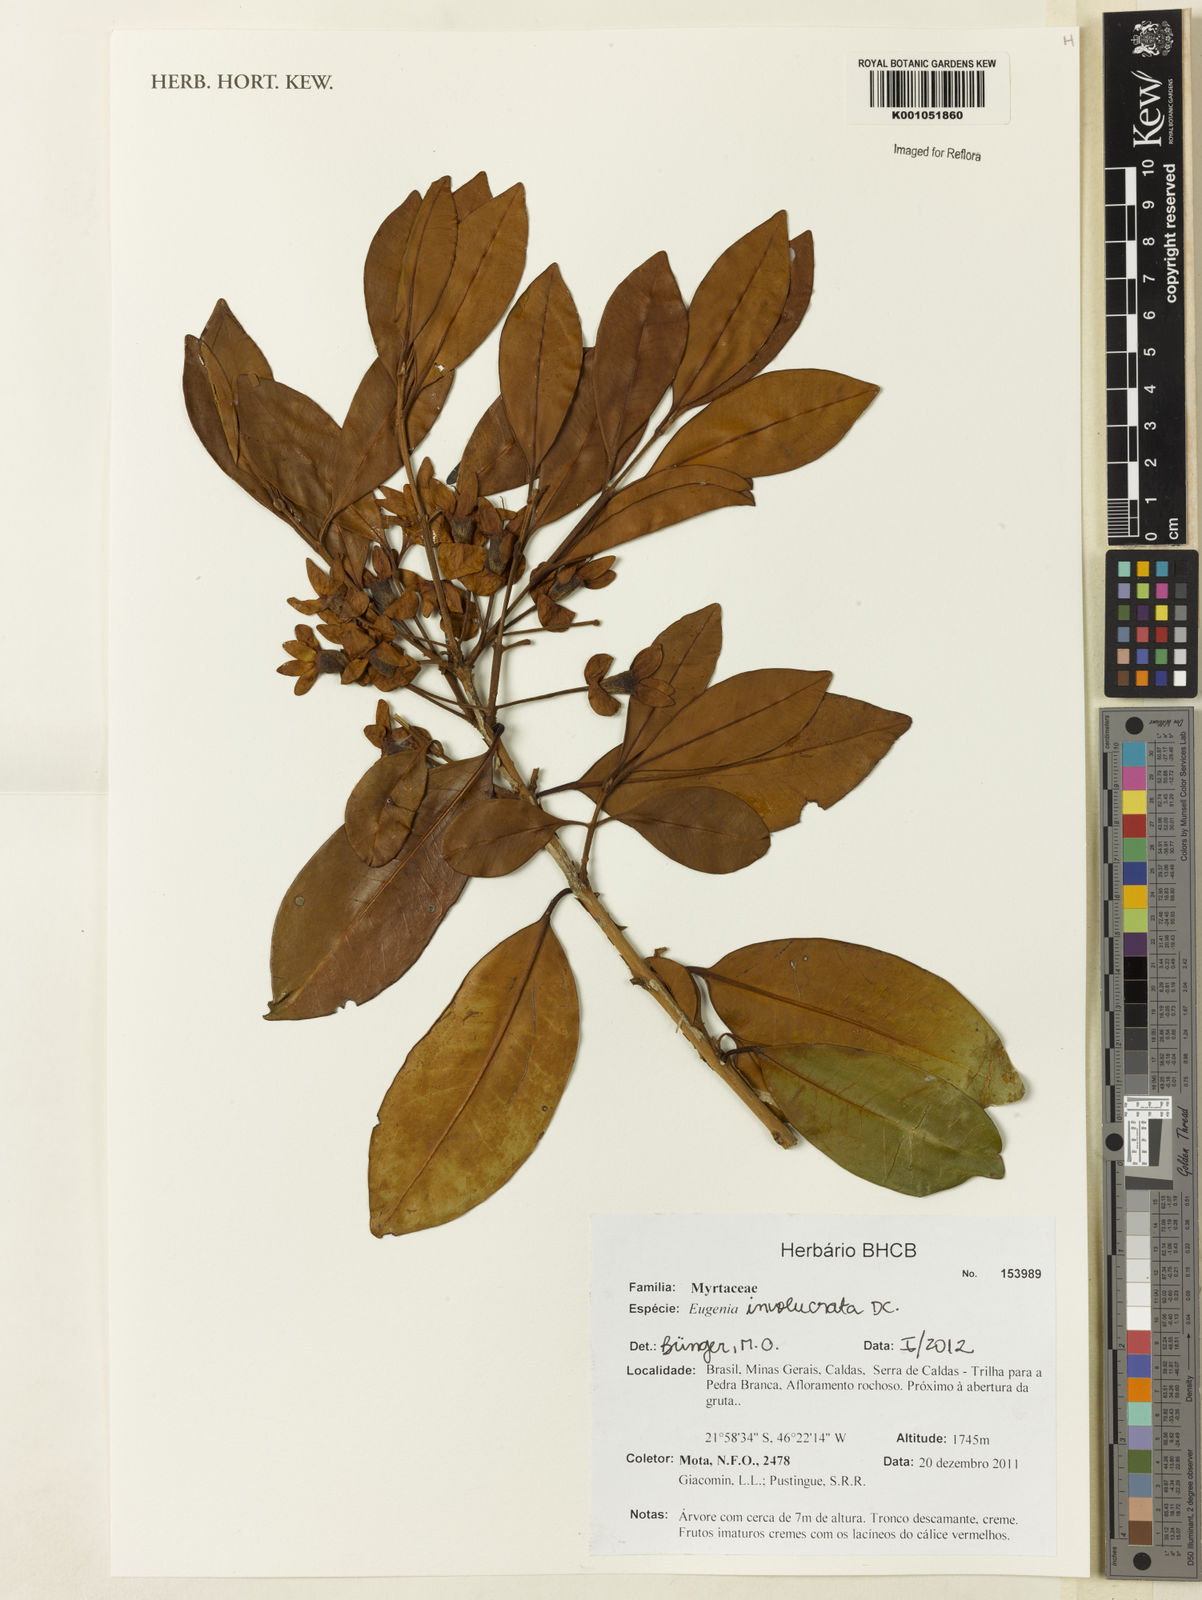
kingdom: Plantae
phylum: Tracheophyta
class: Magnoliopsida
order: Myrtales
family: Myrtaceae
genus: Eugenia
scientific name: Eugenia involucrata
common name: Cherry-of-the-rio grande
